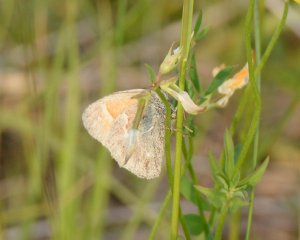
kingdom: Animalia
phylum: Arthropoda
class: Insecta
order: Lepidoptera
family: Nymphalidae
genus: Coenonympha
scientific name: Coenonympha tullia
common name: Large Heath
